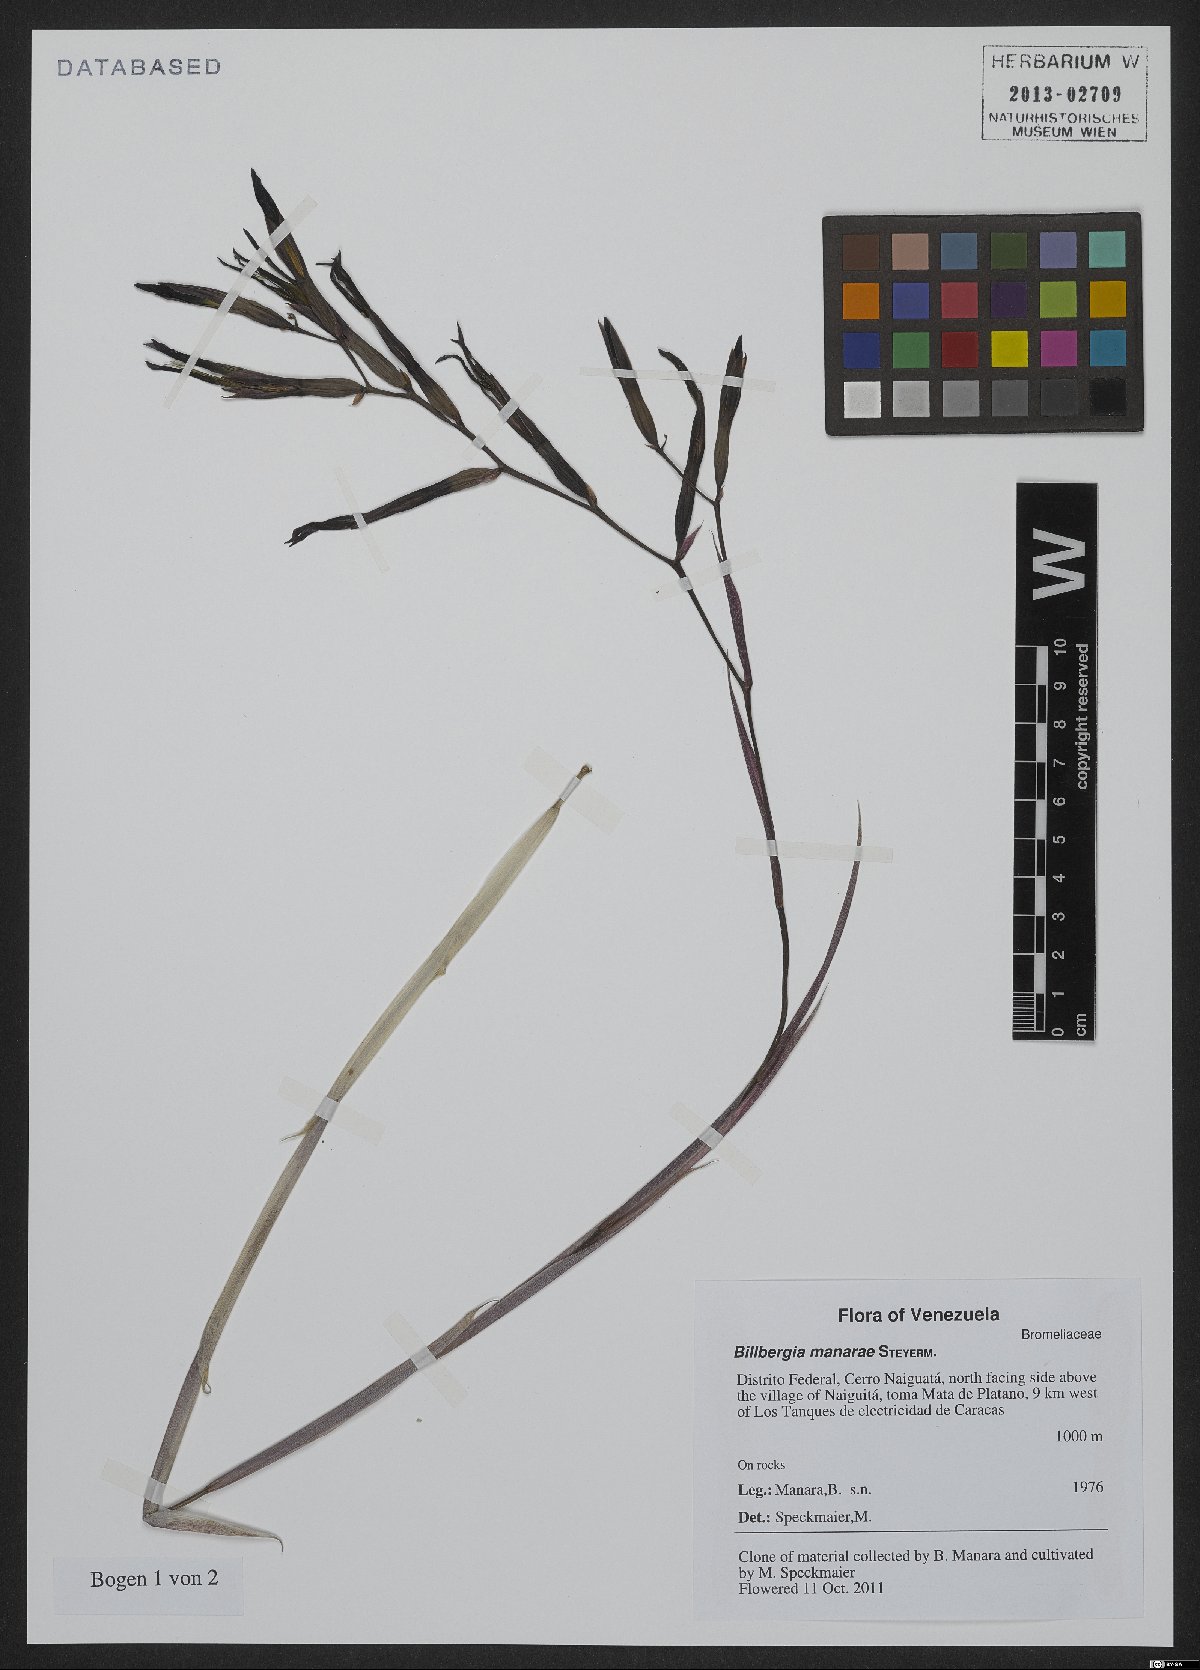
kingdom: Plantae
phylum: Tracheophyta
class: Liliopsida
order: Poales
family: Bromeliaceae
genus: Billbergia
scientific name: Billbergia manarae
